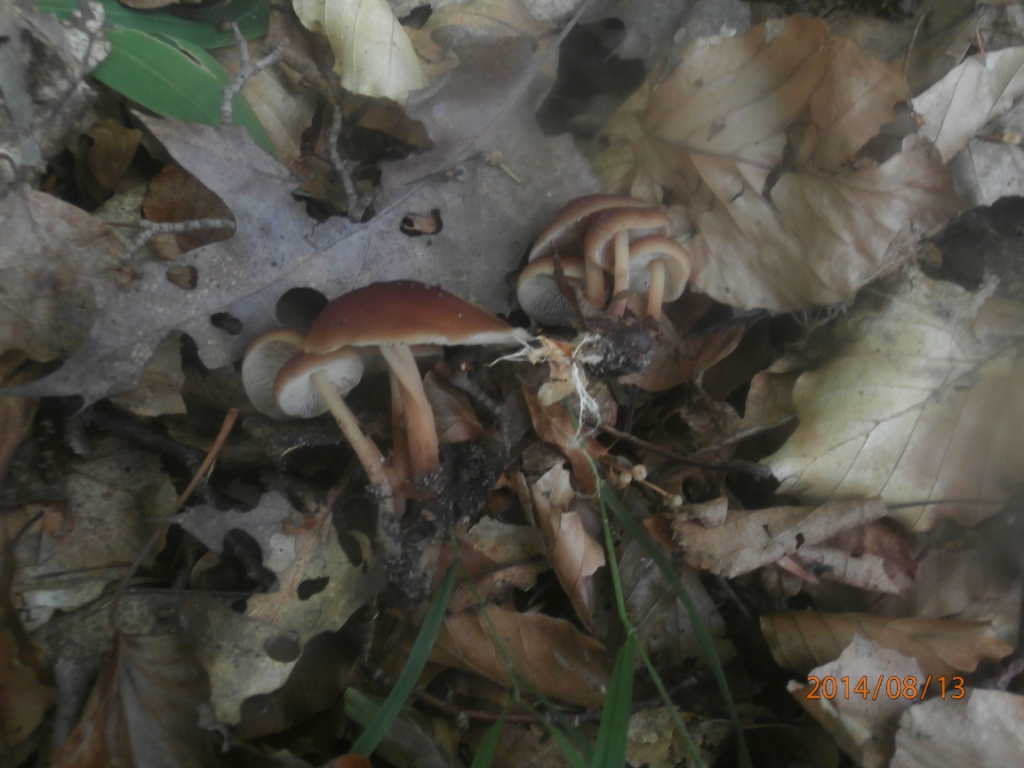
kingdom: Fungi
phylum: Basidiomycota
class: Agaricomycetes
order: Agaricales
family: Omphalotaceae
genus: Gymnopus
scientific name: Gymnopus ocior
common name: mørk fladhat
